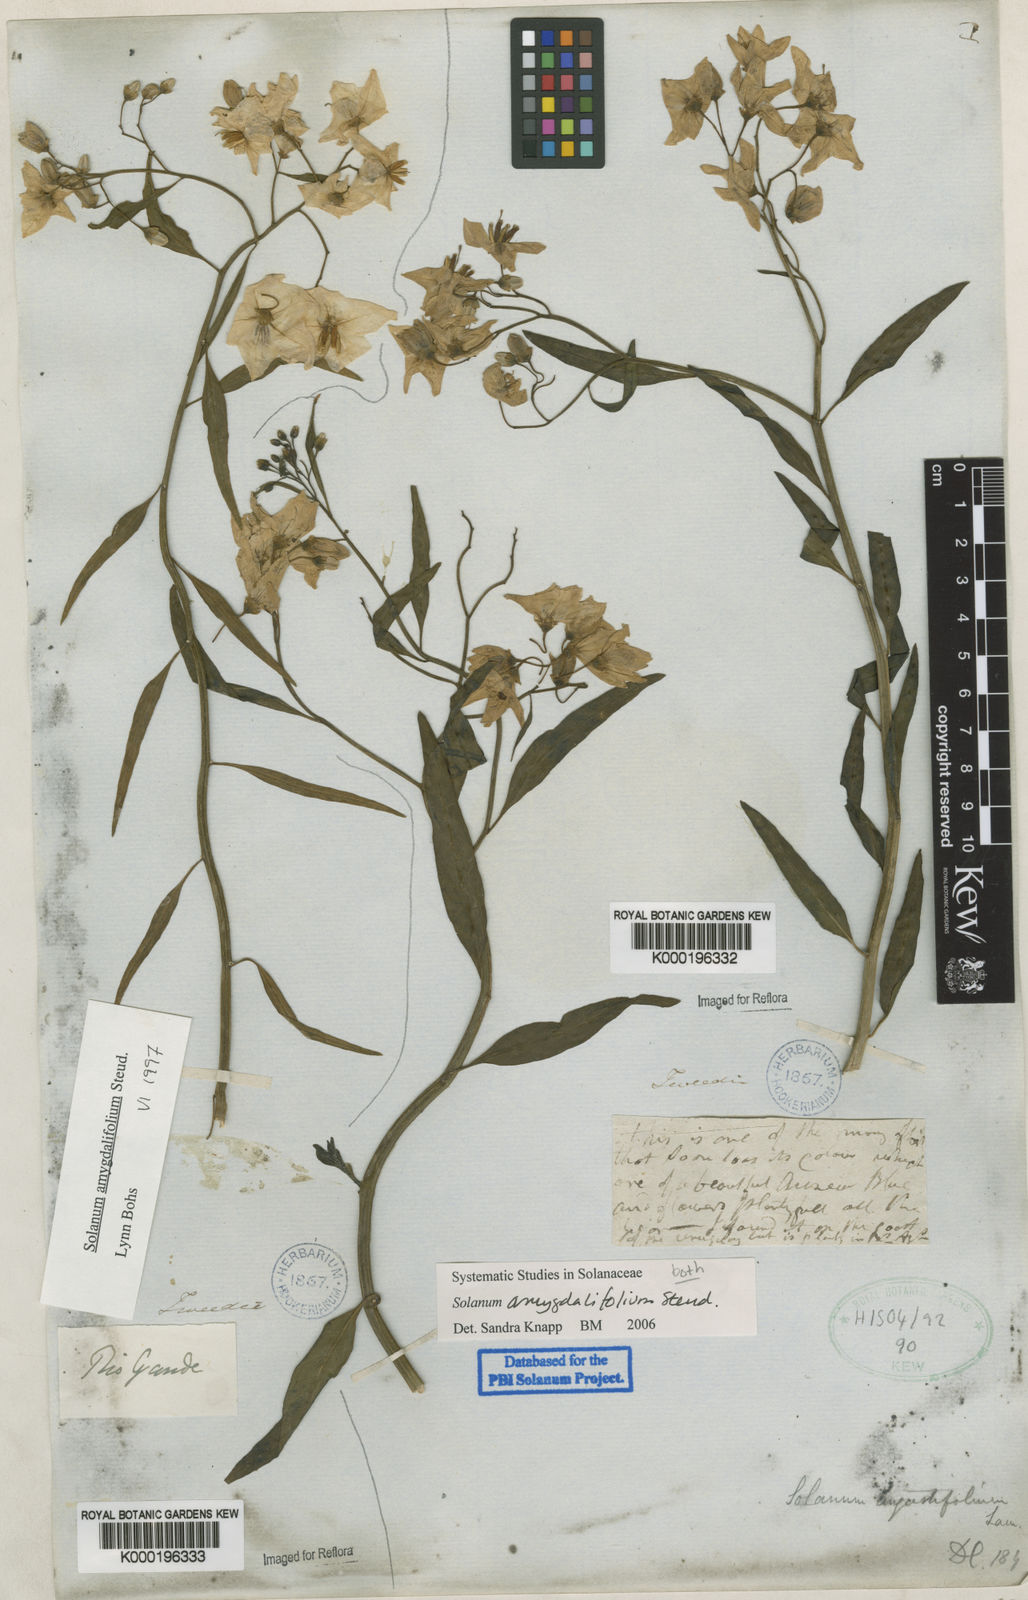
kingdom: Plantae
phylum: Tracheophyta
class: Magnoliopsida
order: Solanales
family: Solanaceae
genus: Solanum
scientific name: Solanum amygdalifolium
